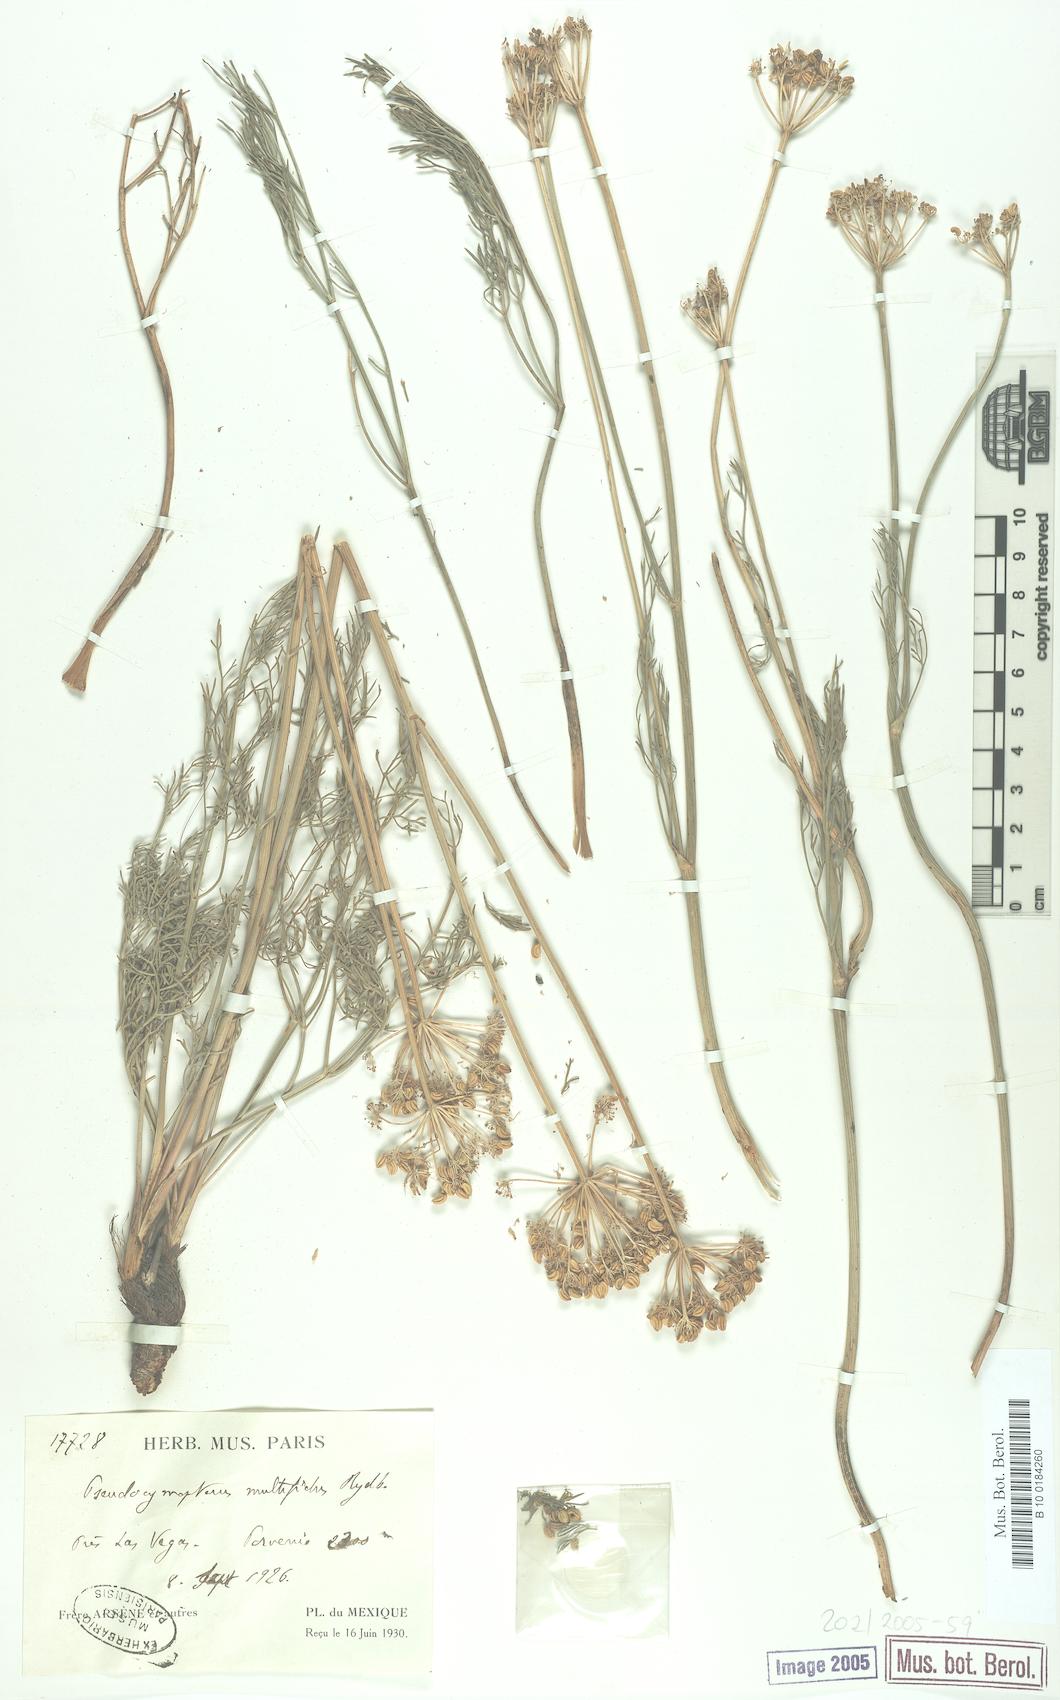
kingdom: Plantae
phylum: Tracheophyta
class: Magnoliopsida
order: Apiales
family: Apiaceae
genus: Cymopterus
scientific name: Cymopterus lemmonii
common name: Lemmon's spring-parsley
